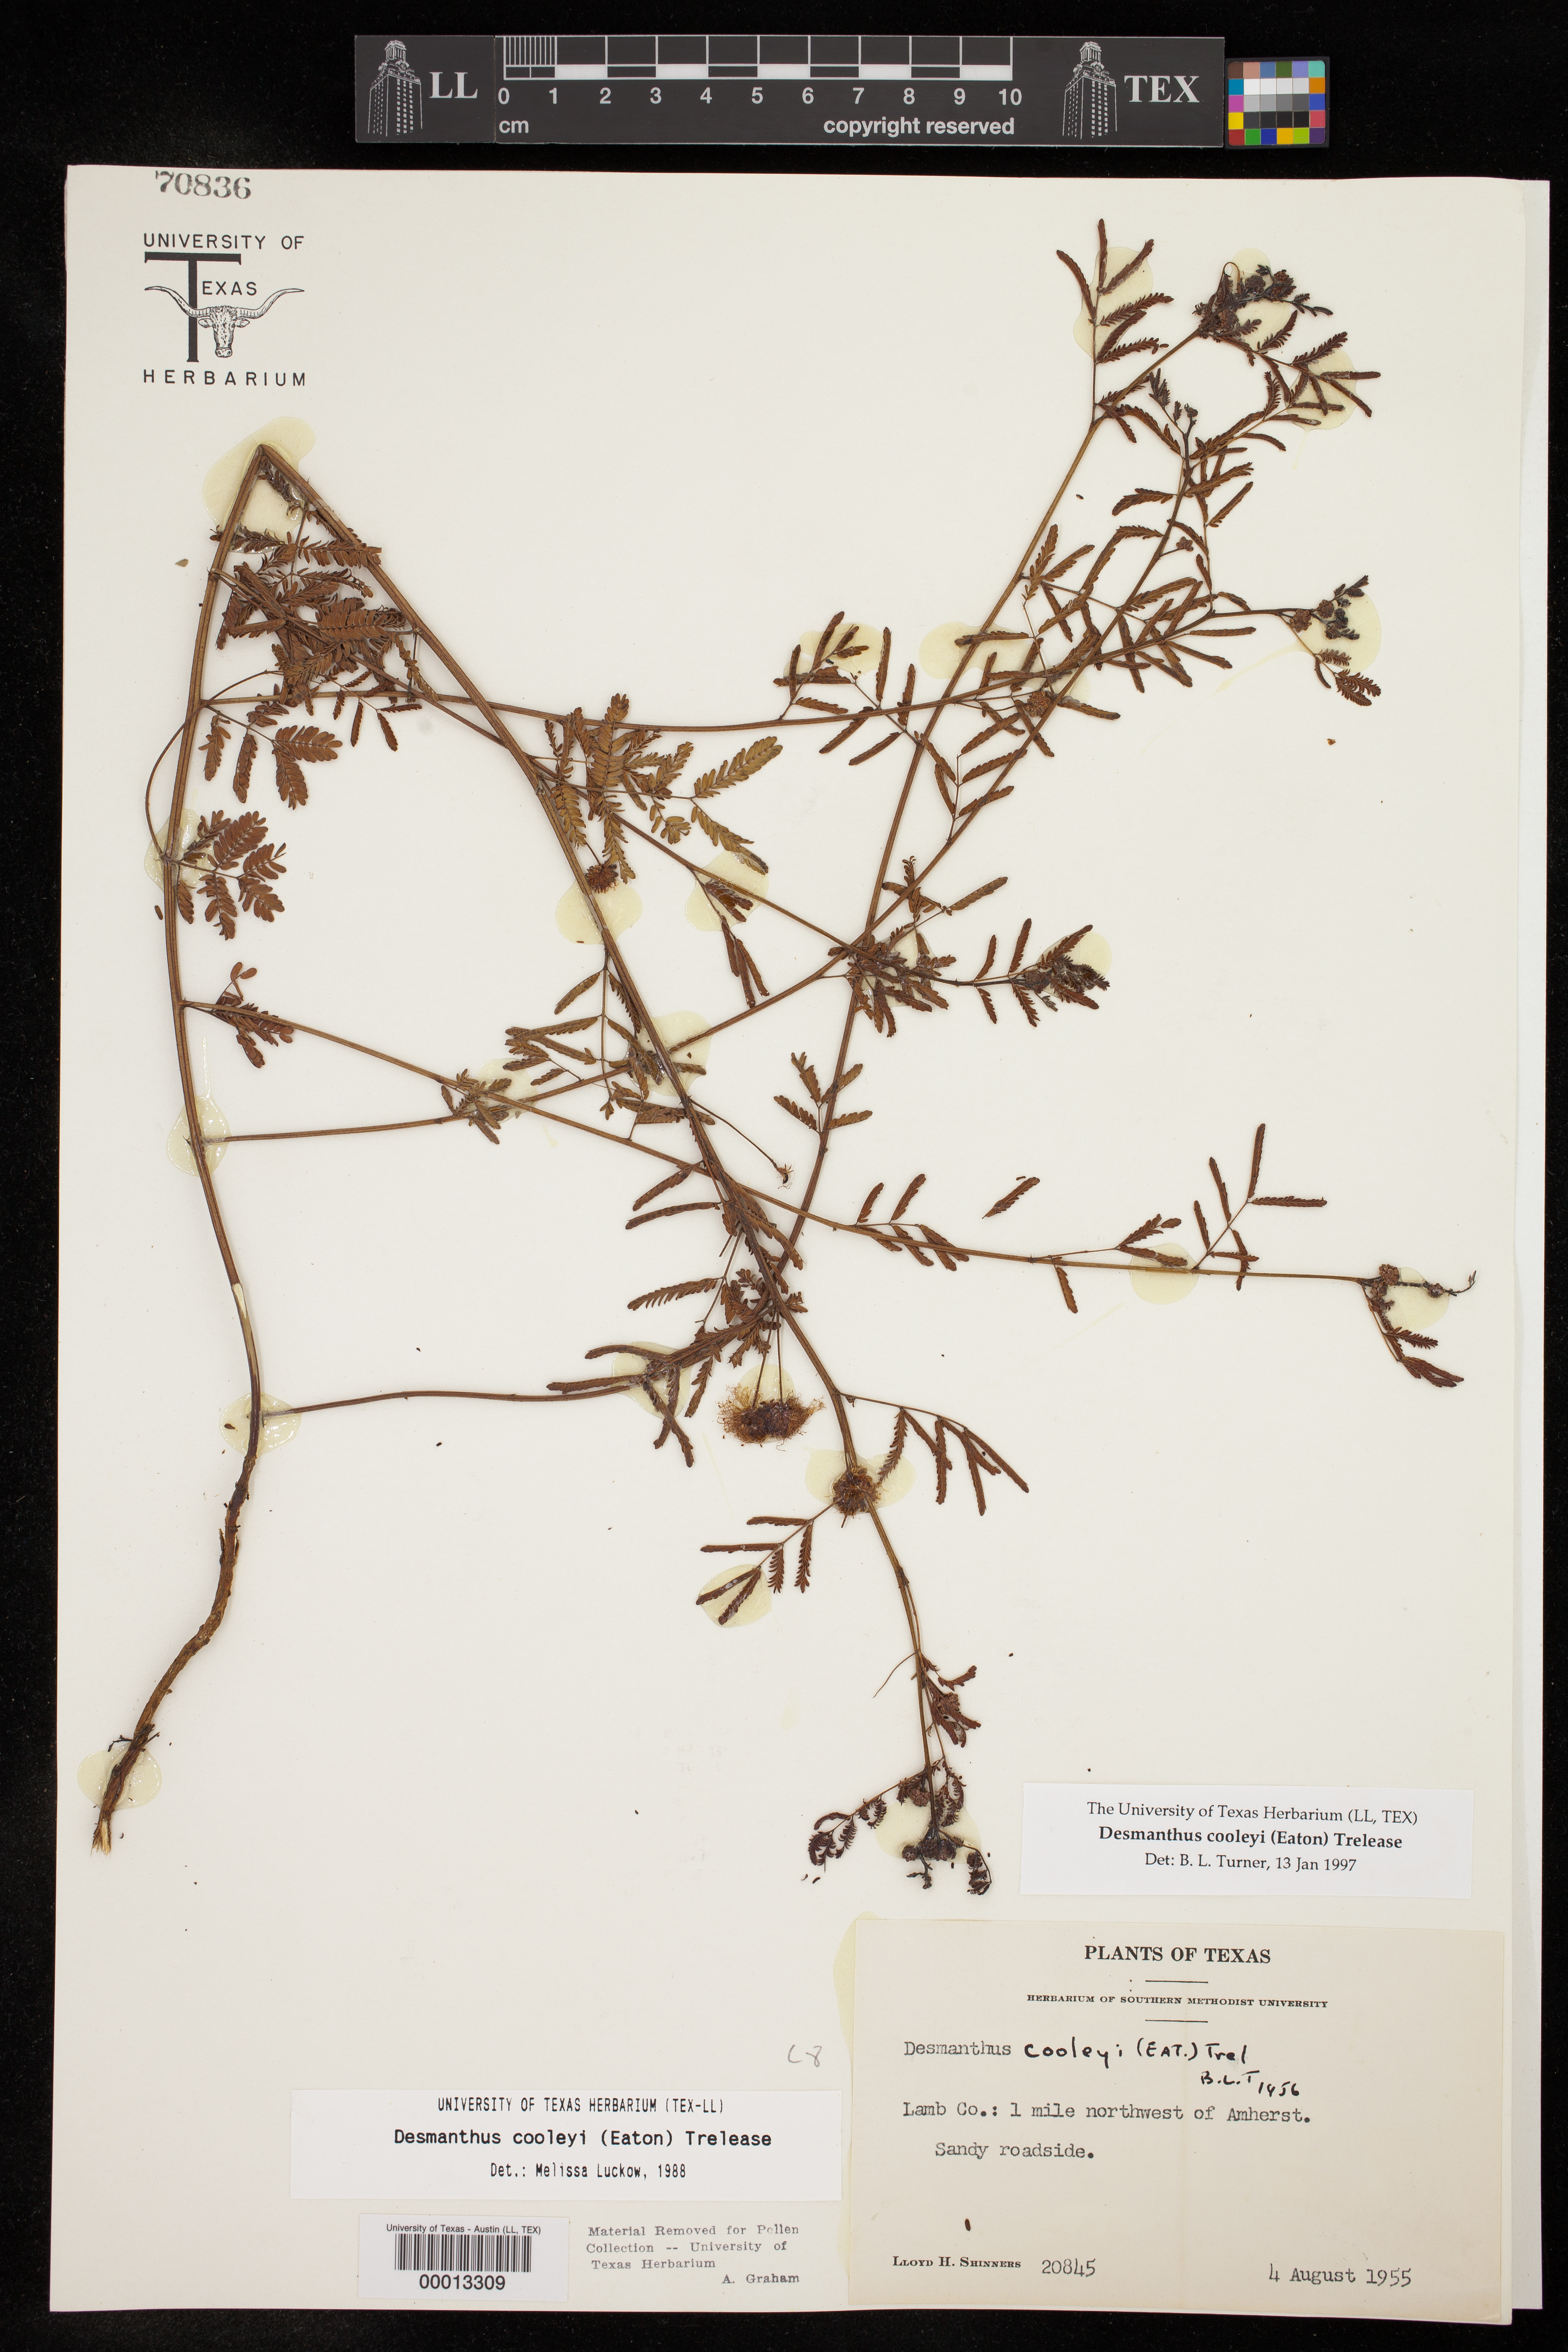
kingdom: Plantae
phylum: Tracheophyta
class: Magnoliopsida
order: Fabales
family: Fabaceae
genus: Desmanthus
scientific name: Desmanthus cooleyi
